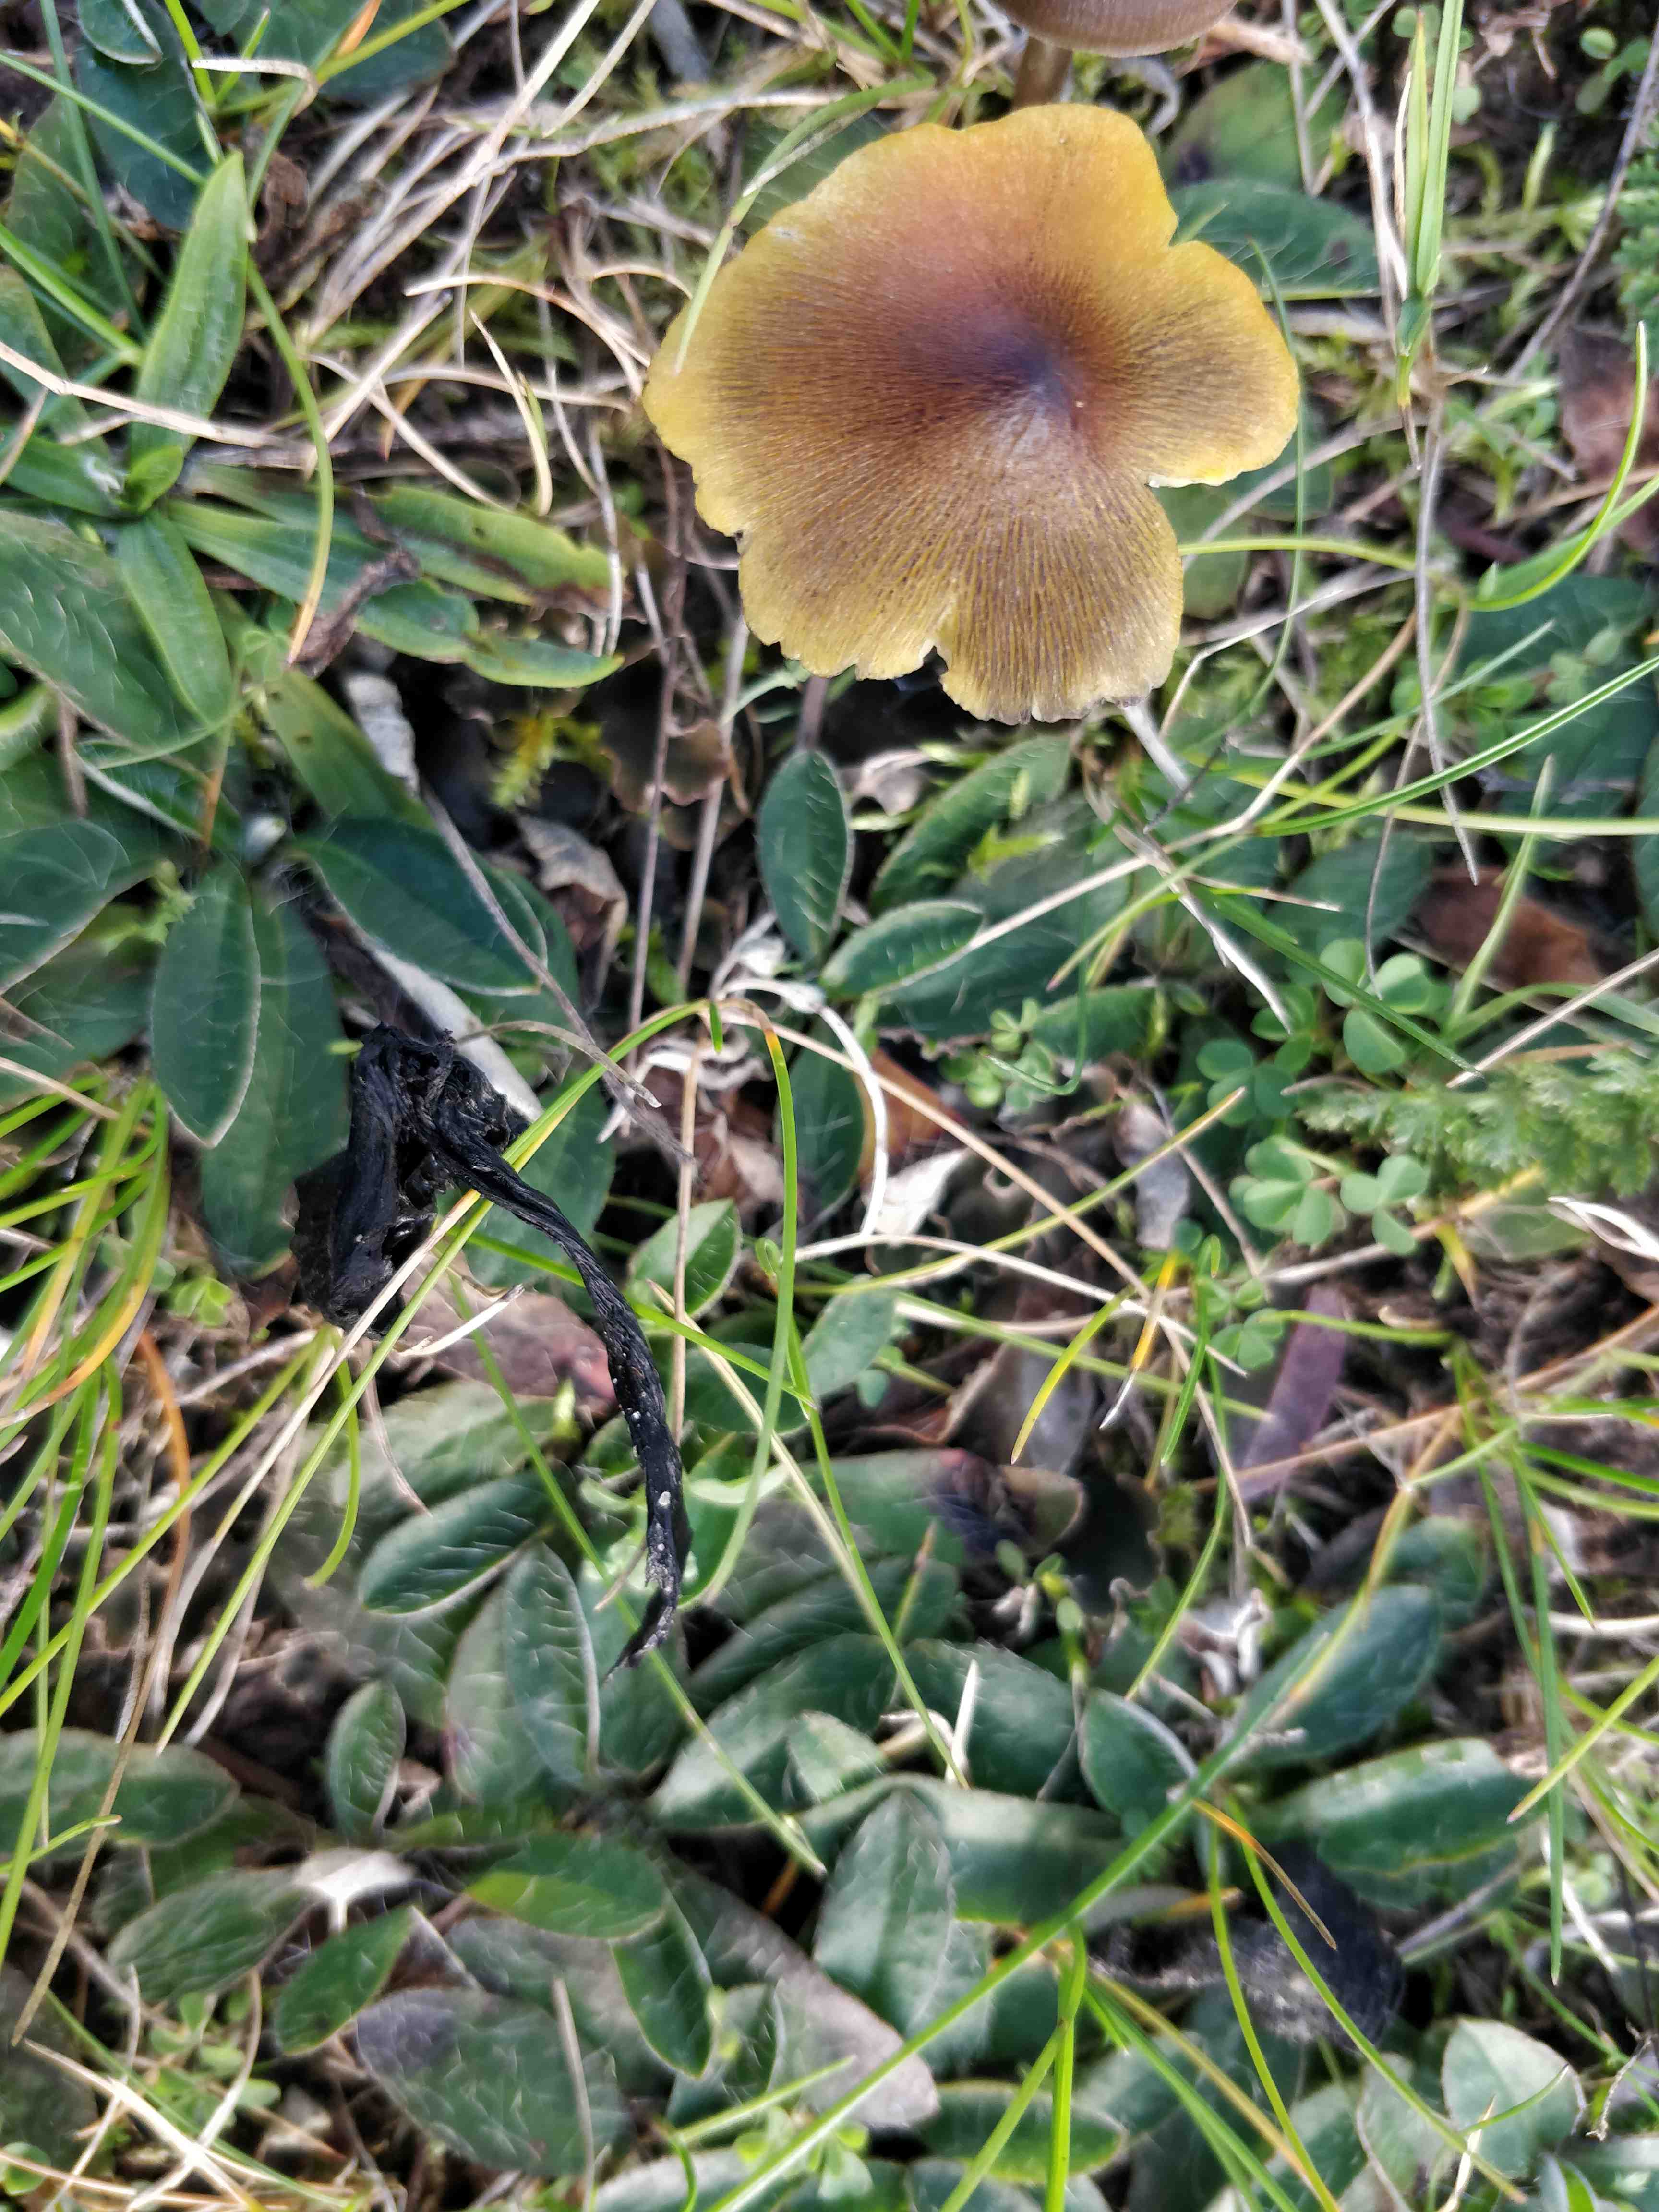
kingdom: Fungi
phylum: Basidiomycota
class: Agaricomycetes
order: Agaricales
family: Hygrophoraceae
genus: Hygrocybe
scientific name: Hygrocybe conica
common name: kegle-vokshat
